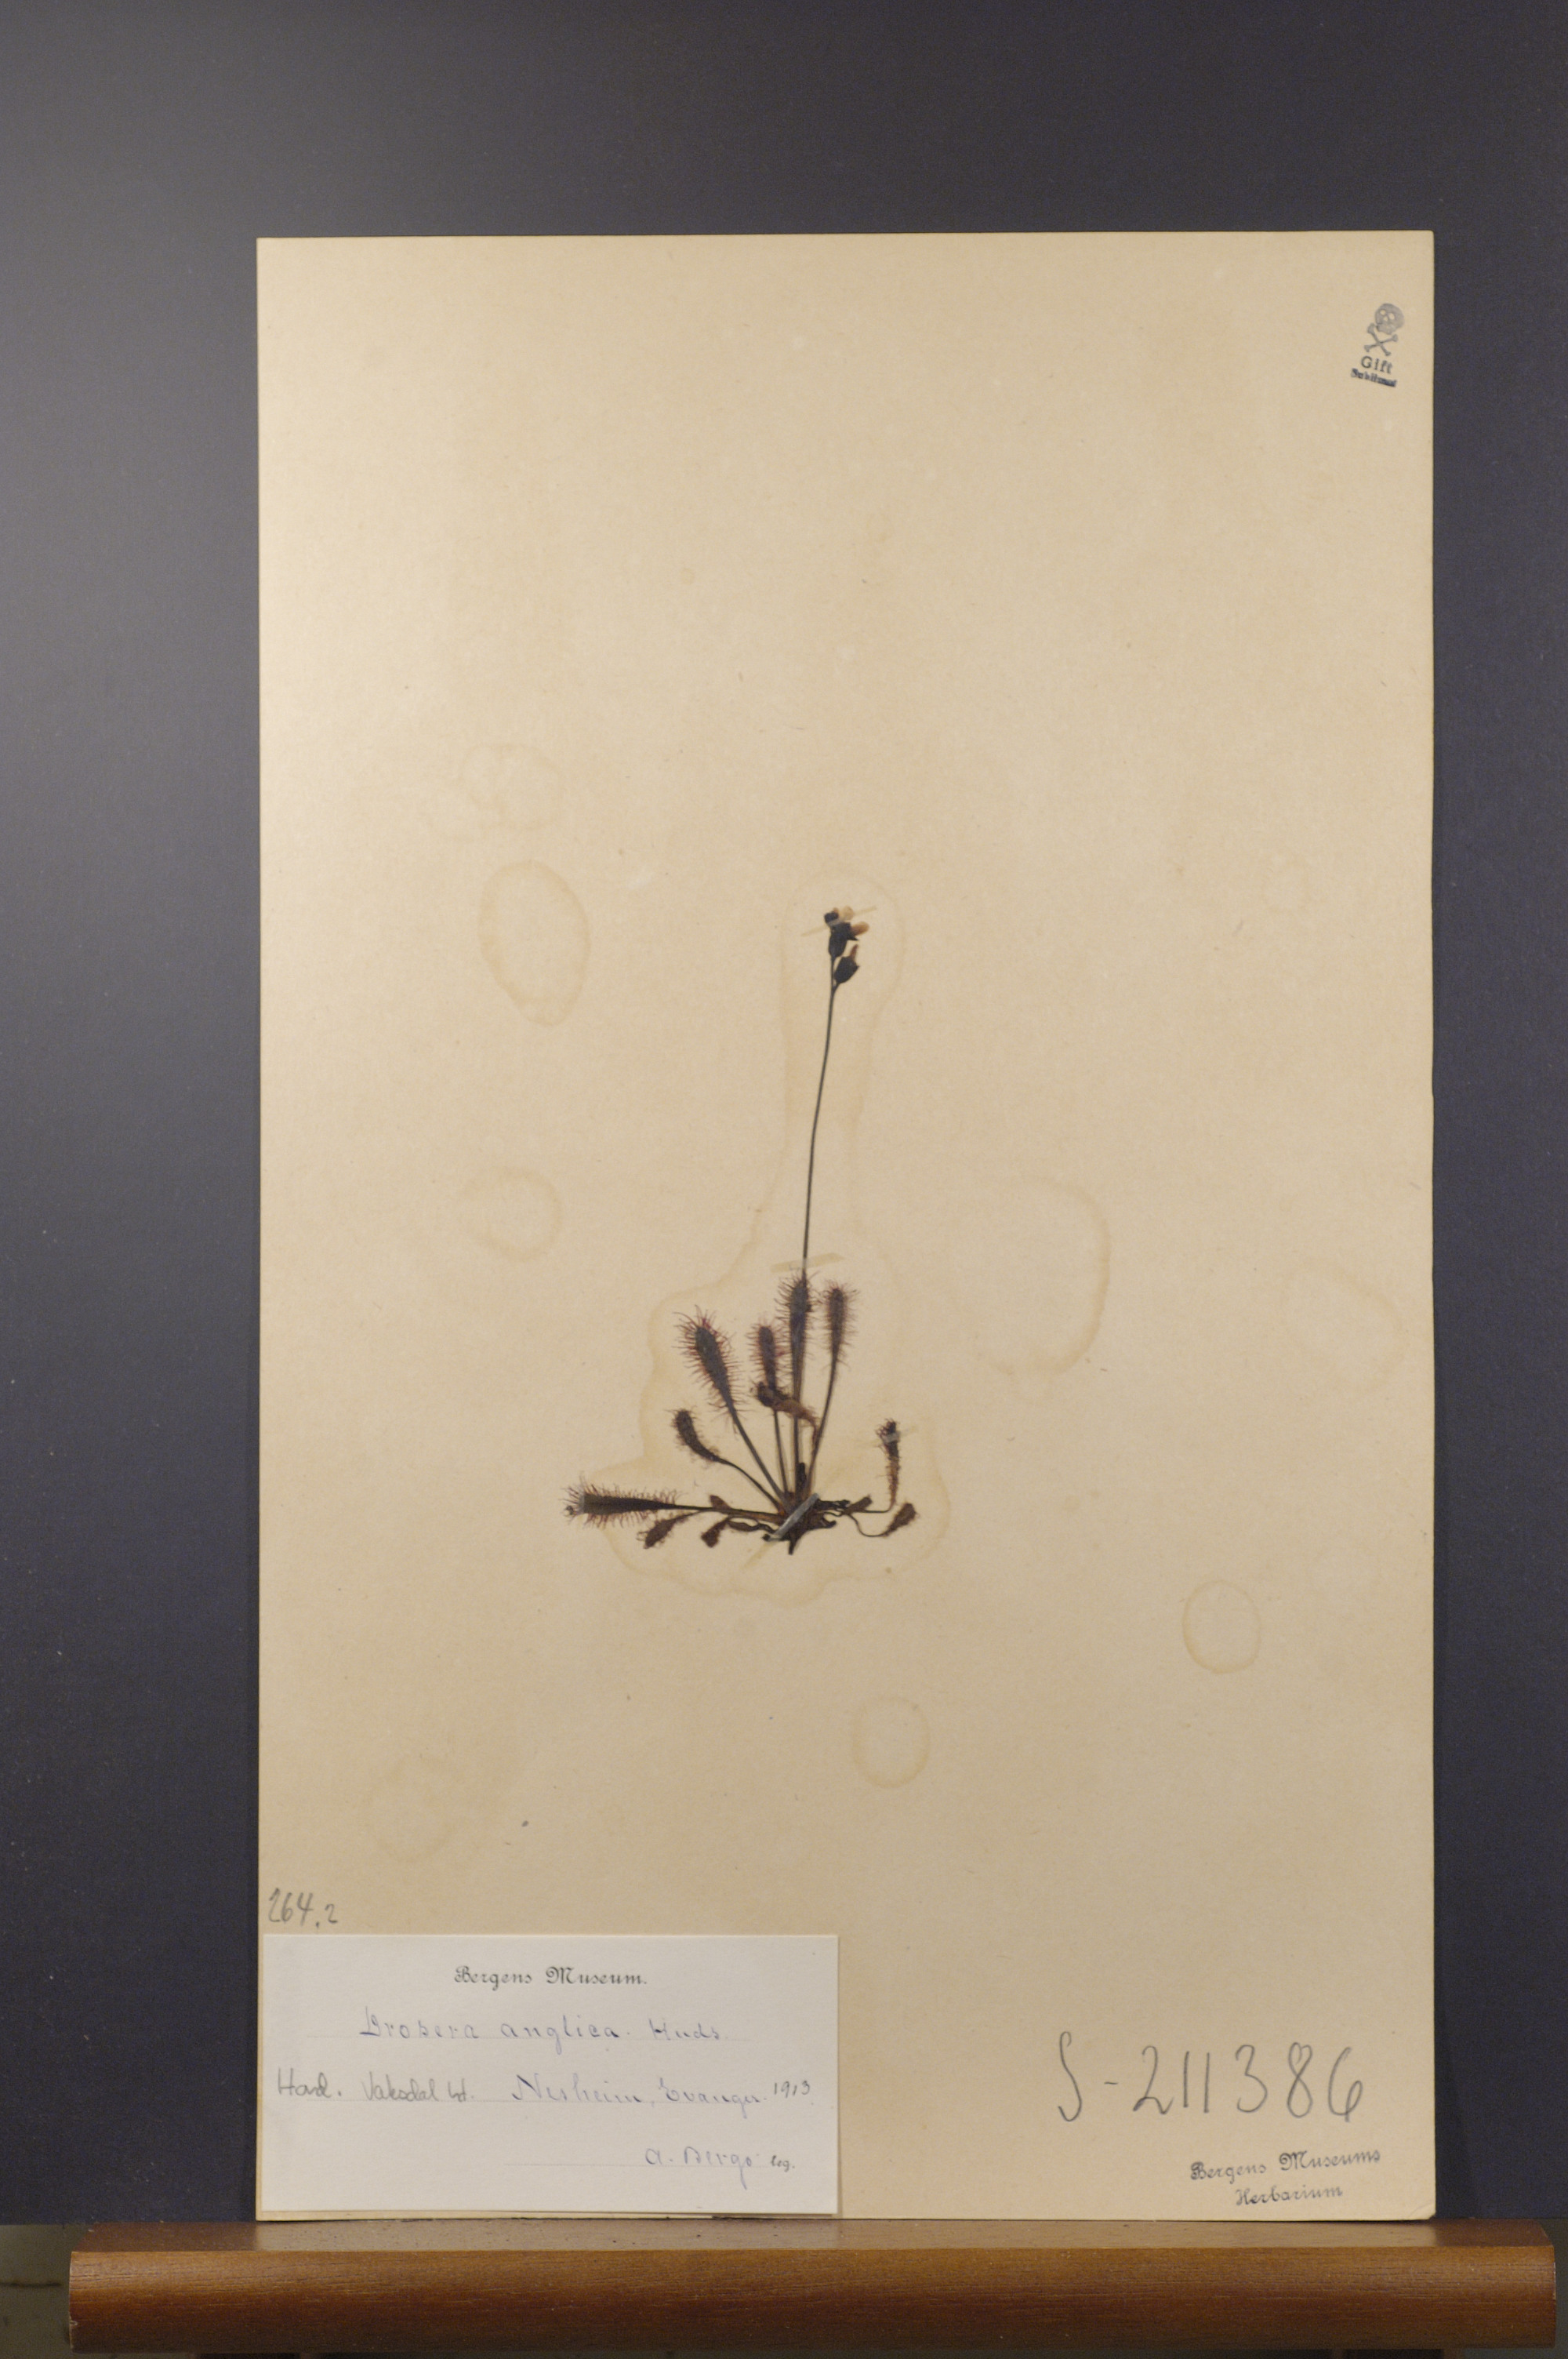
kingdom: Plantae
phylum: Tracheophyta
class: Magnoliopsida
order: Caryophyllales
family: Droseraceae
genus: Drosera
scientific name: Drosera anglica
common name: Great sundew
